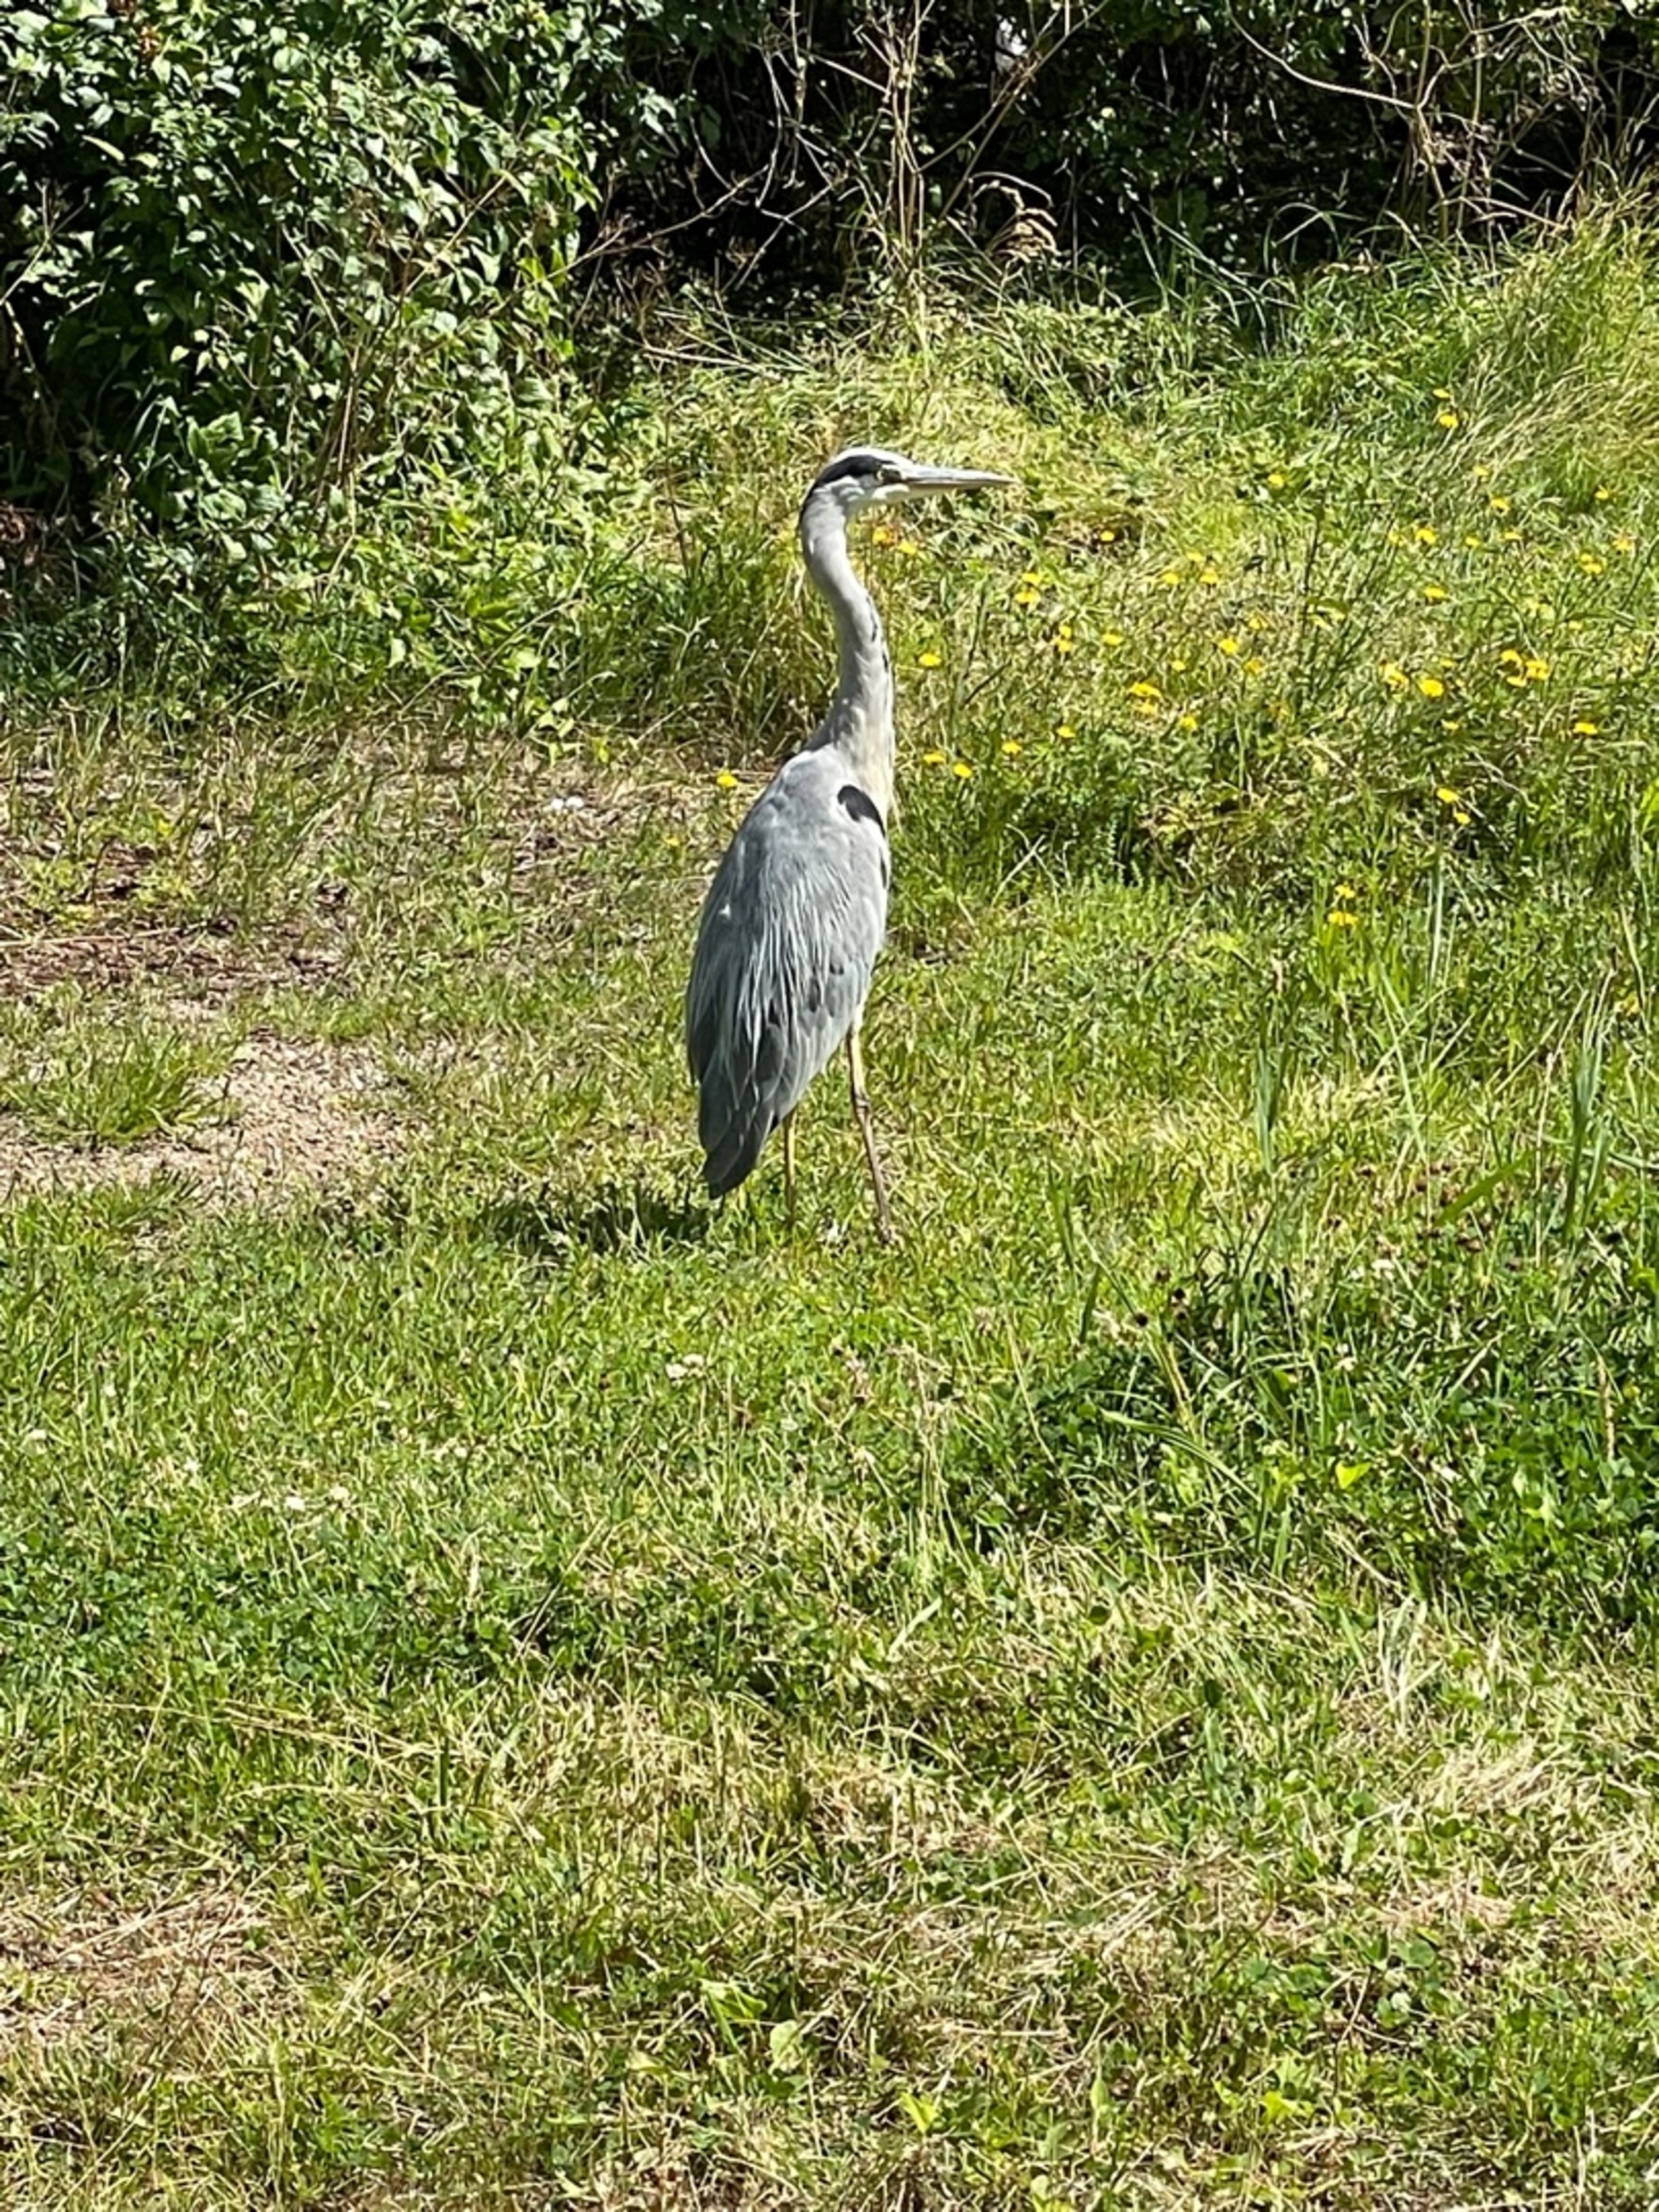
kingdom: Animalia
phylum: Chordata
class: Aves
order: Pelecaniformes
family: Ardeidae
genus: Ardea
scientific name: Ardea cinerea
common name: Fiskehejre
